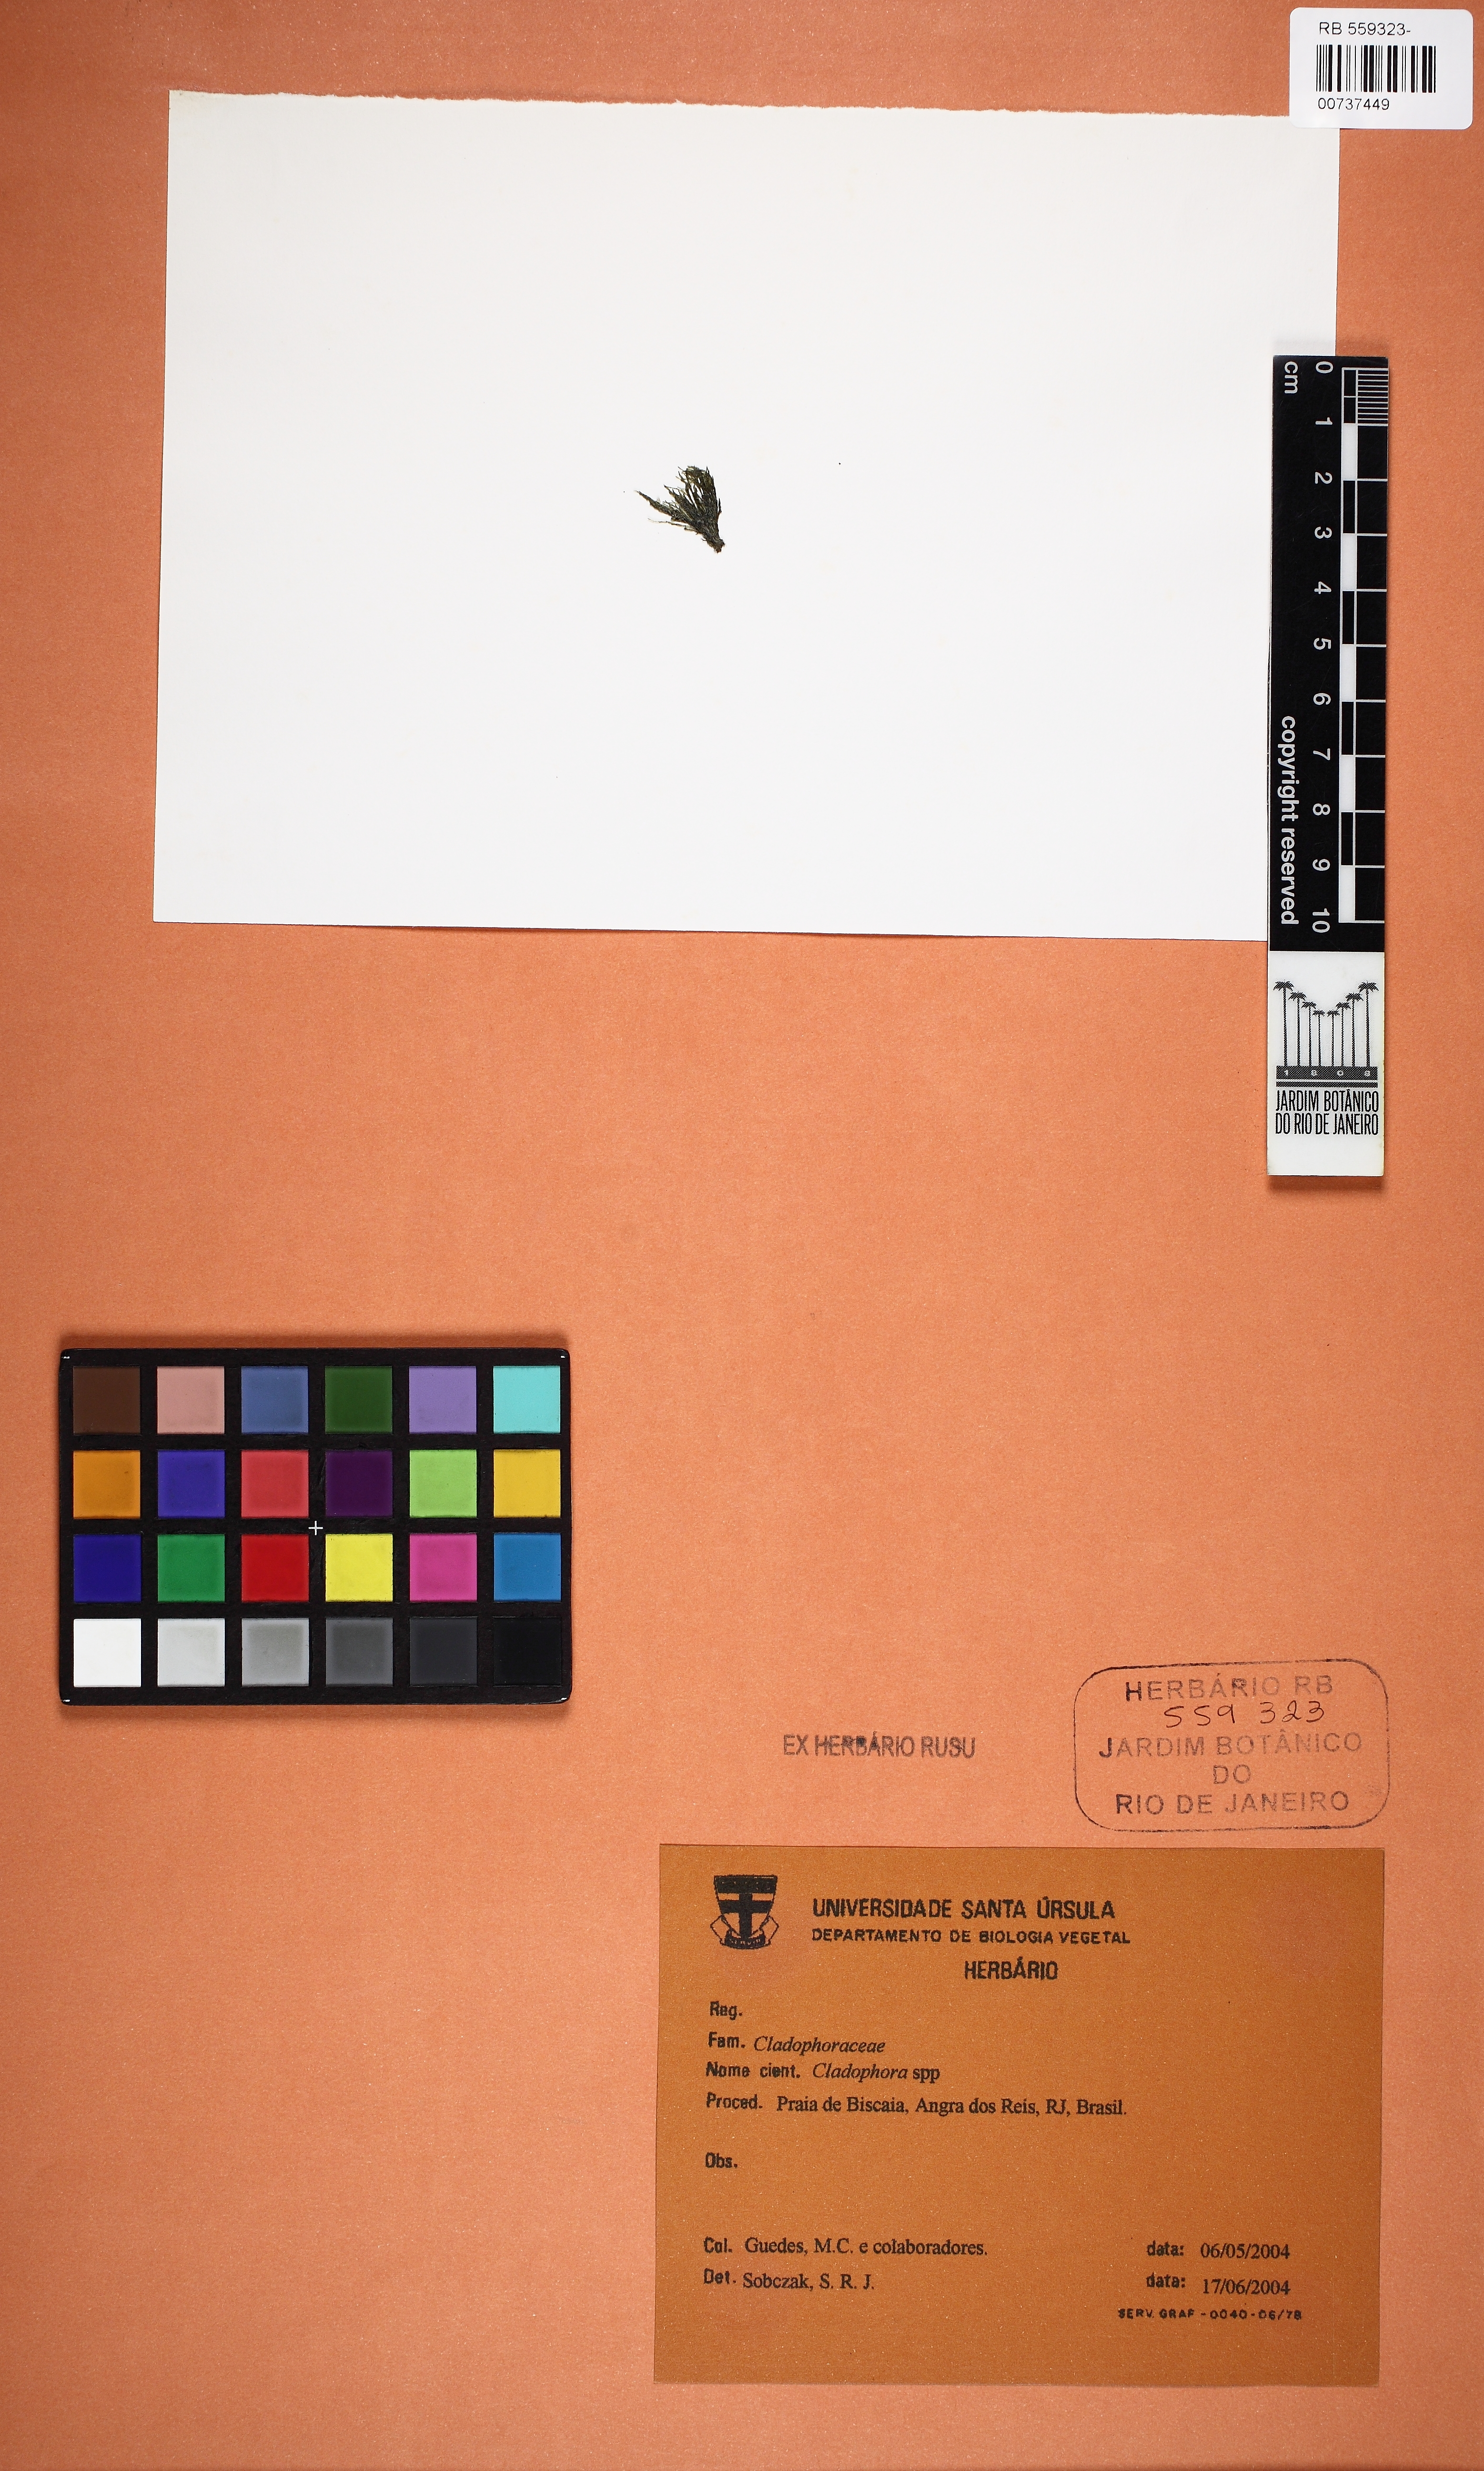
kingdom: Plantae
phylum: Chlorophyta
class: Ulvophyceae
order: Cladophorales
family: Cladophoraceae
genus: Cladophora
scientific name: Cladophora
